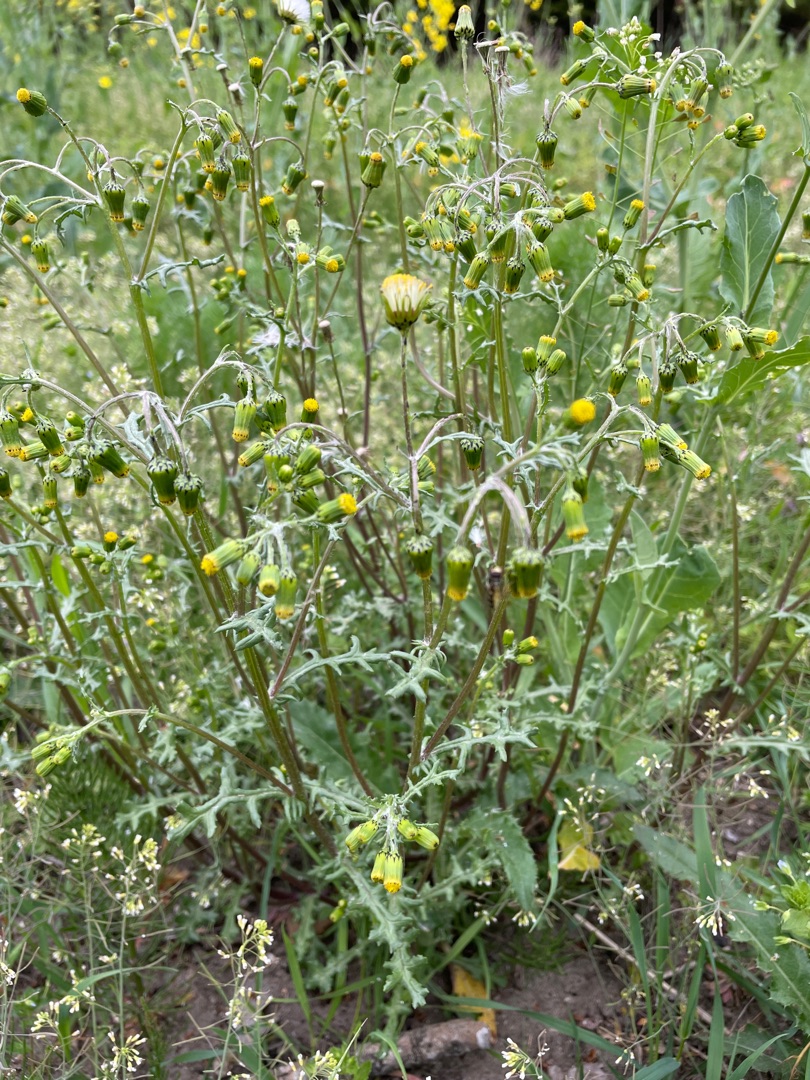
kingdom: Plantae
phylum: Tracheophyta
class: Magnoliopsida
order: Asterales
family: Asteraceae
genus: Senecio
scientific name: Senecio vulgaris
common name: Almindelig brandbæger
